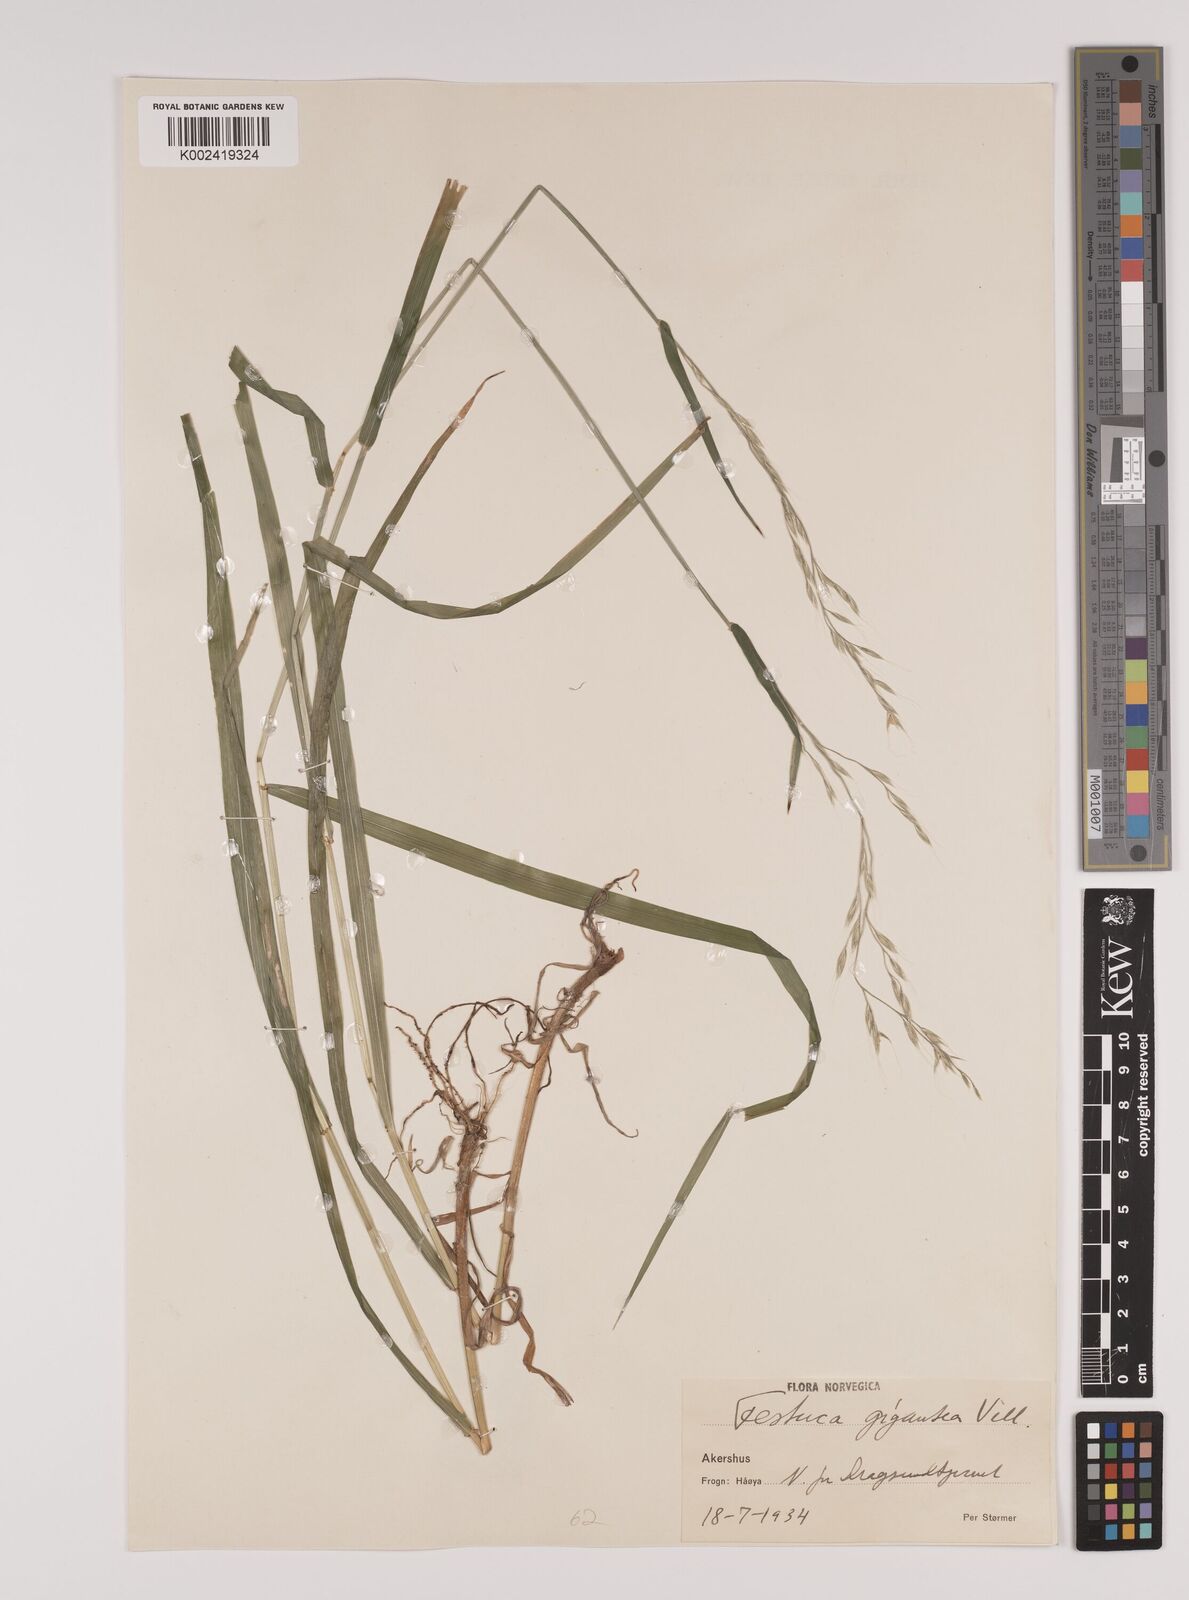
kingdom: Plantae
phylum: Tracheophyta
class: Liliopsida
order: Poales
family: Poaceae
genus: Lolium
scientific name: Lolium giganteum
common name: Giant fescue
